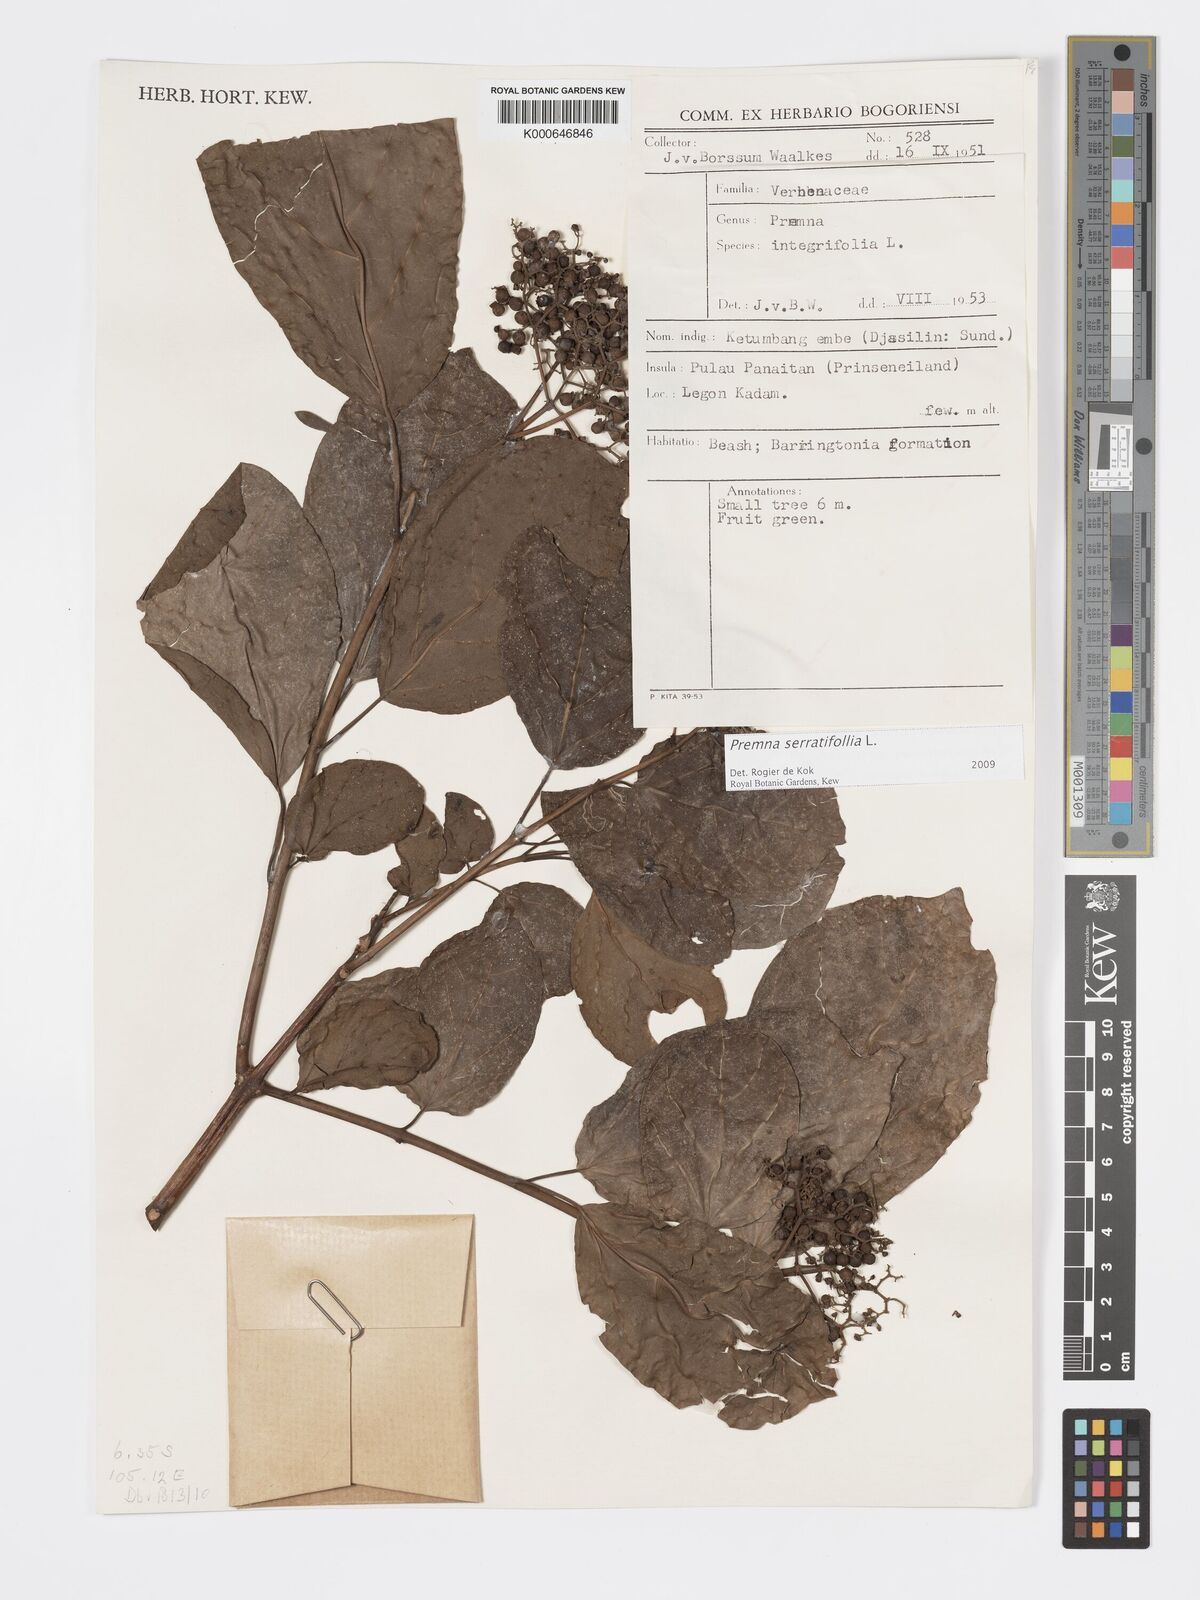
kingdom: Plantae
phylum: Tracheophyta
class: Magnoliopsida
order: Lamiales
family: Lamiaceae
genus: Premna
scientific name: Premna serratifolia
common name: Bastard guelder
